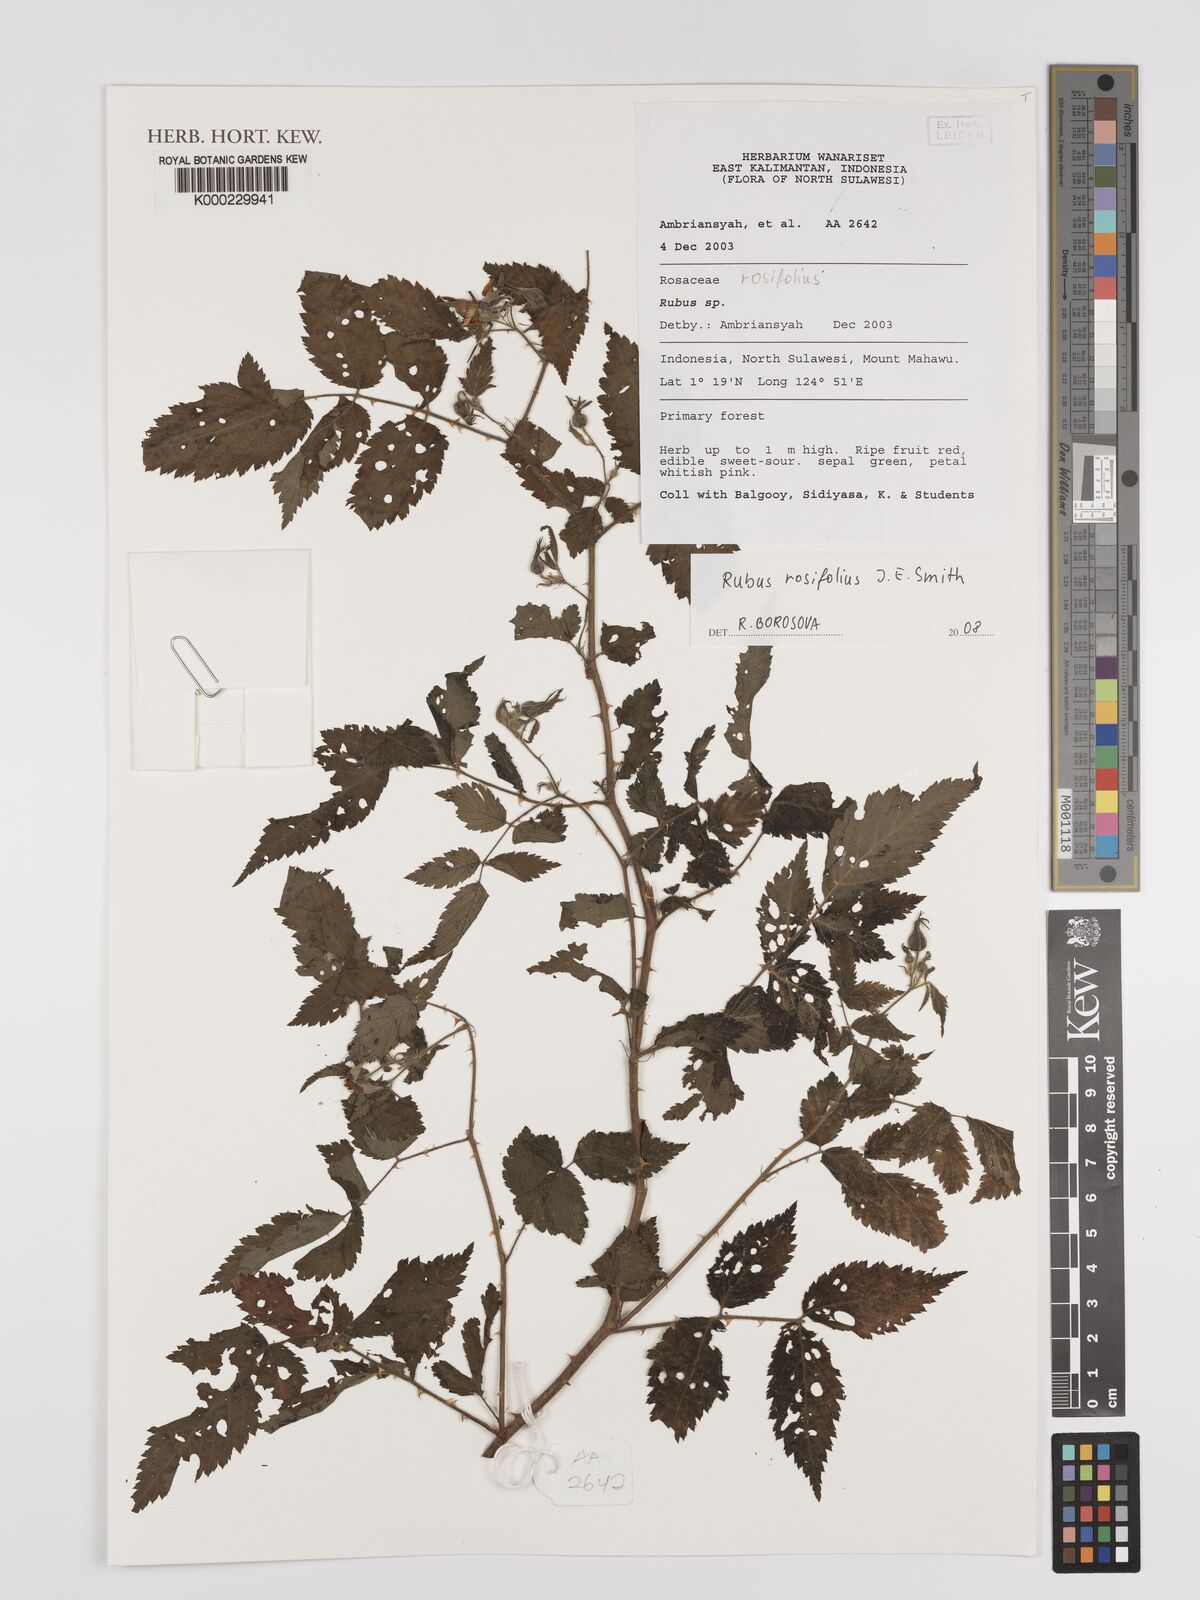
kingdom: Plantae
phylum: Tracheophyta
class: Magnoliopsida
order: Rosales
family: Rosaceae
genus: Rubus
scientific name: Rubus
